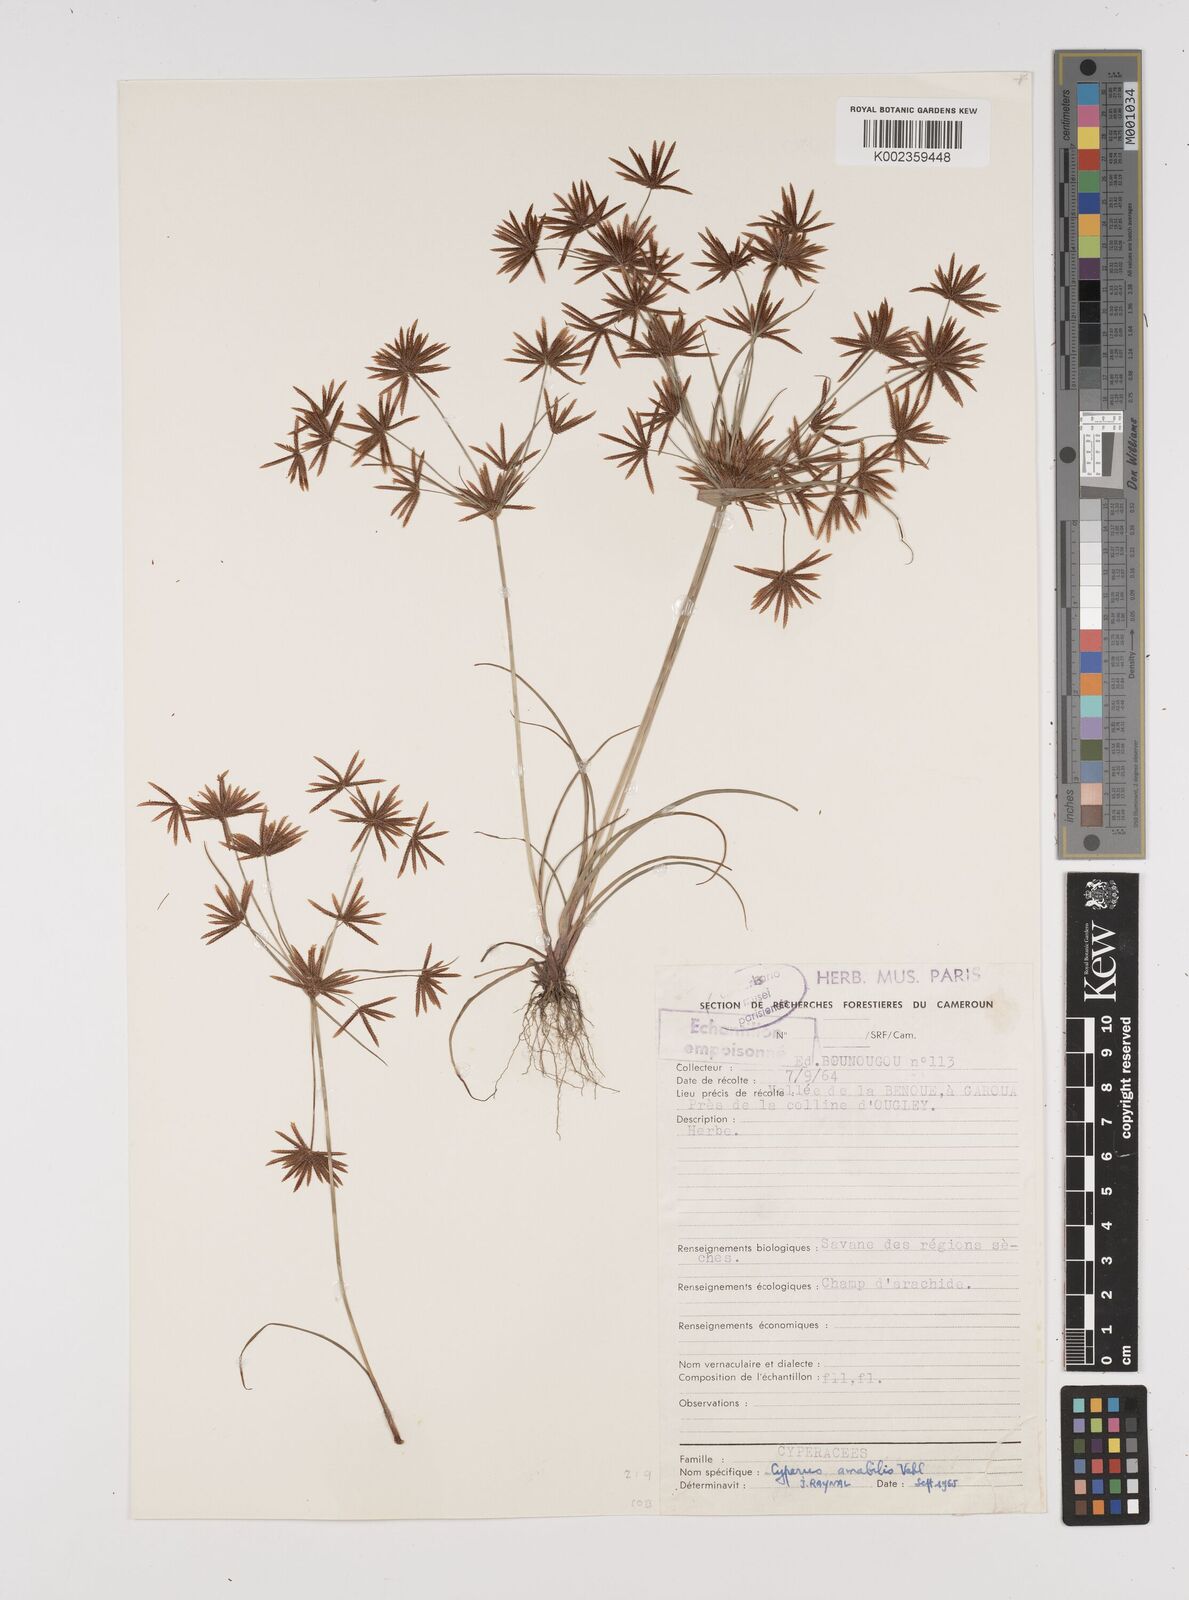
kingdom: Plantae
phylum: Tracheophyta
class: Liliopsida
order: Poales
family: Cyperaceae
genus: Cyperus
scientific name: Cyperus amabilis
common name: Foothill flat sedge
